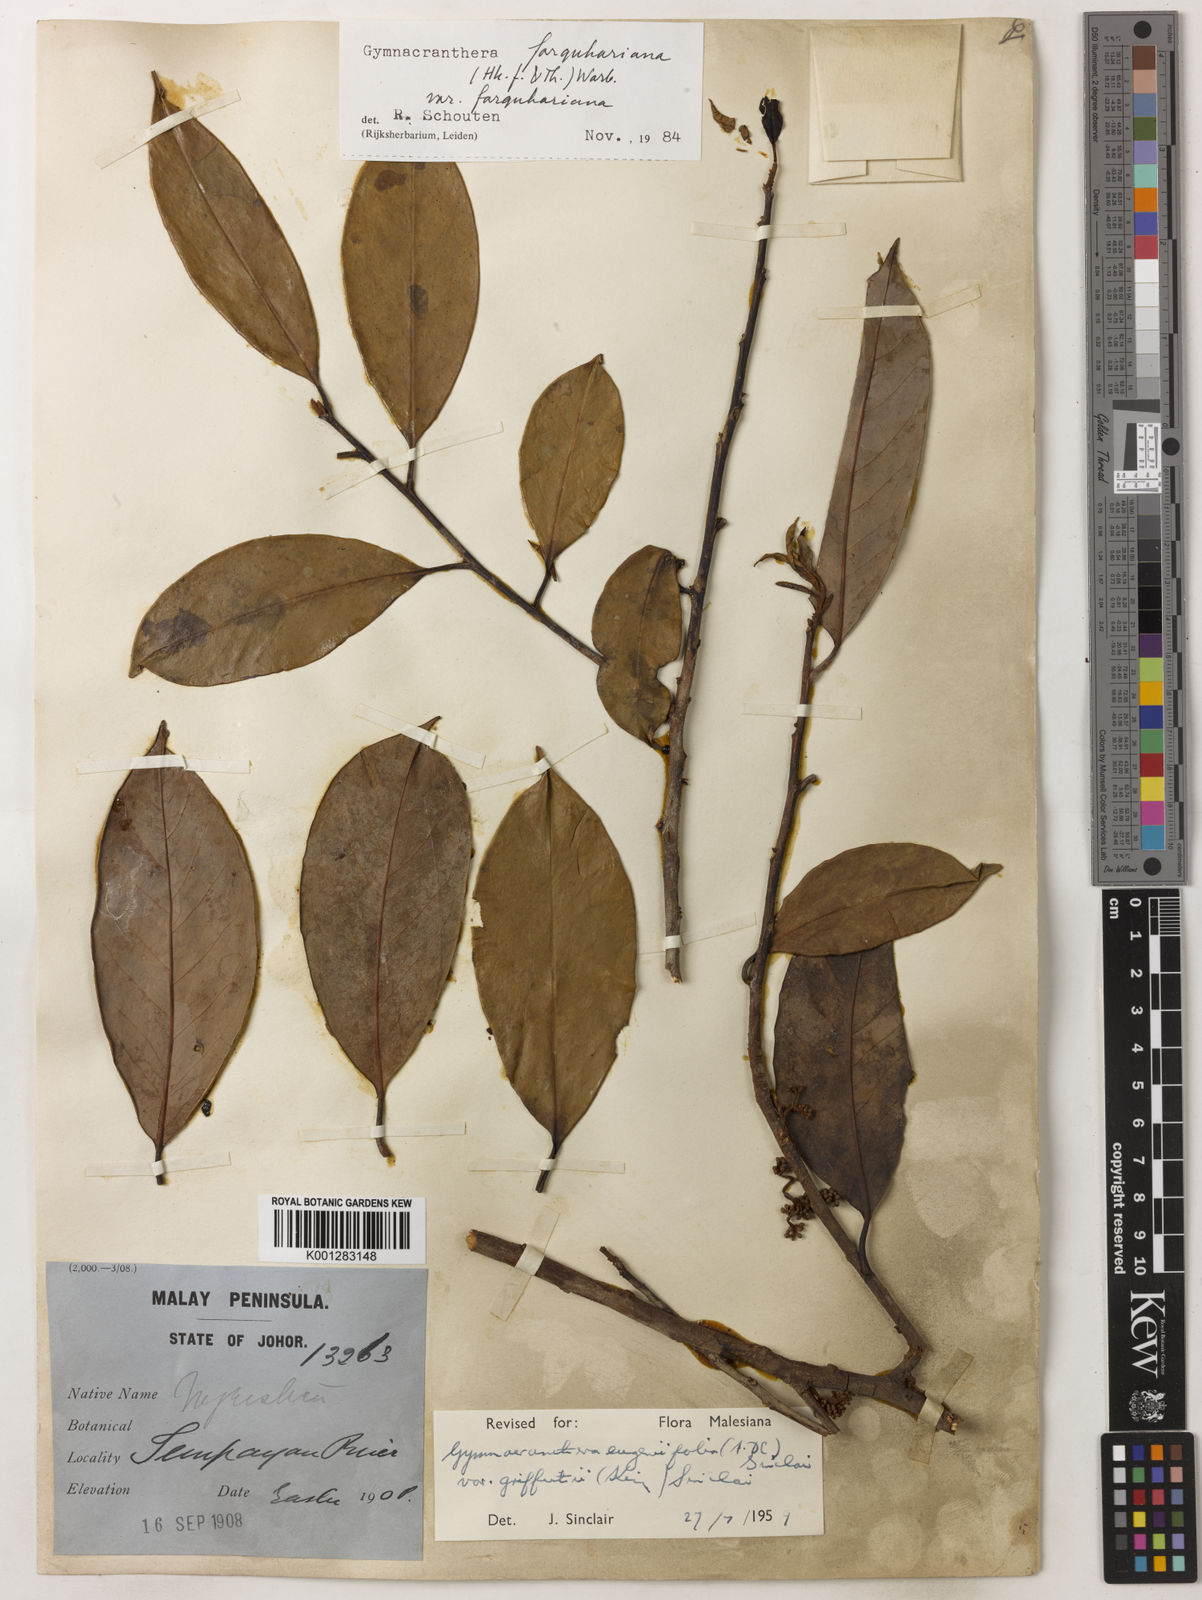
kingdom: Plantae
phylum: Tracheophyta
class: Magnoliopsida
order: Magnoliales
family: Myristicaceae
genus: Gymnacranthera
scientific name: Gymnacranthera farquhariana
